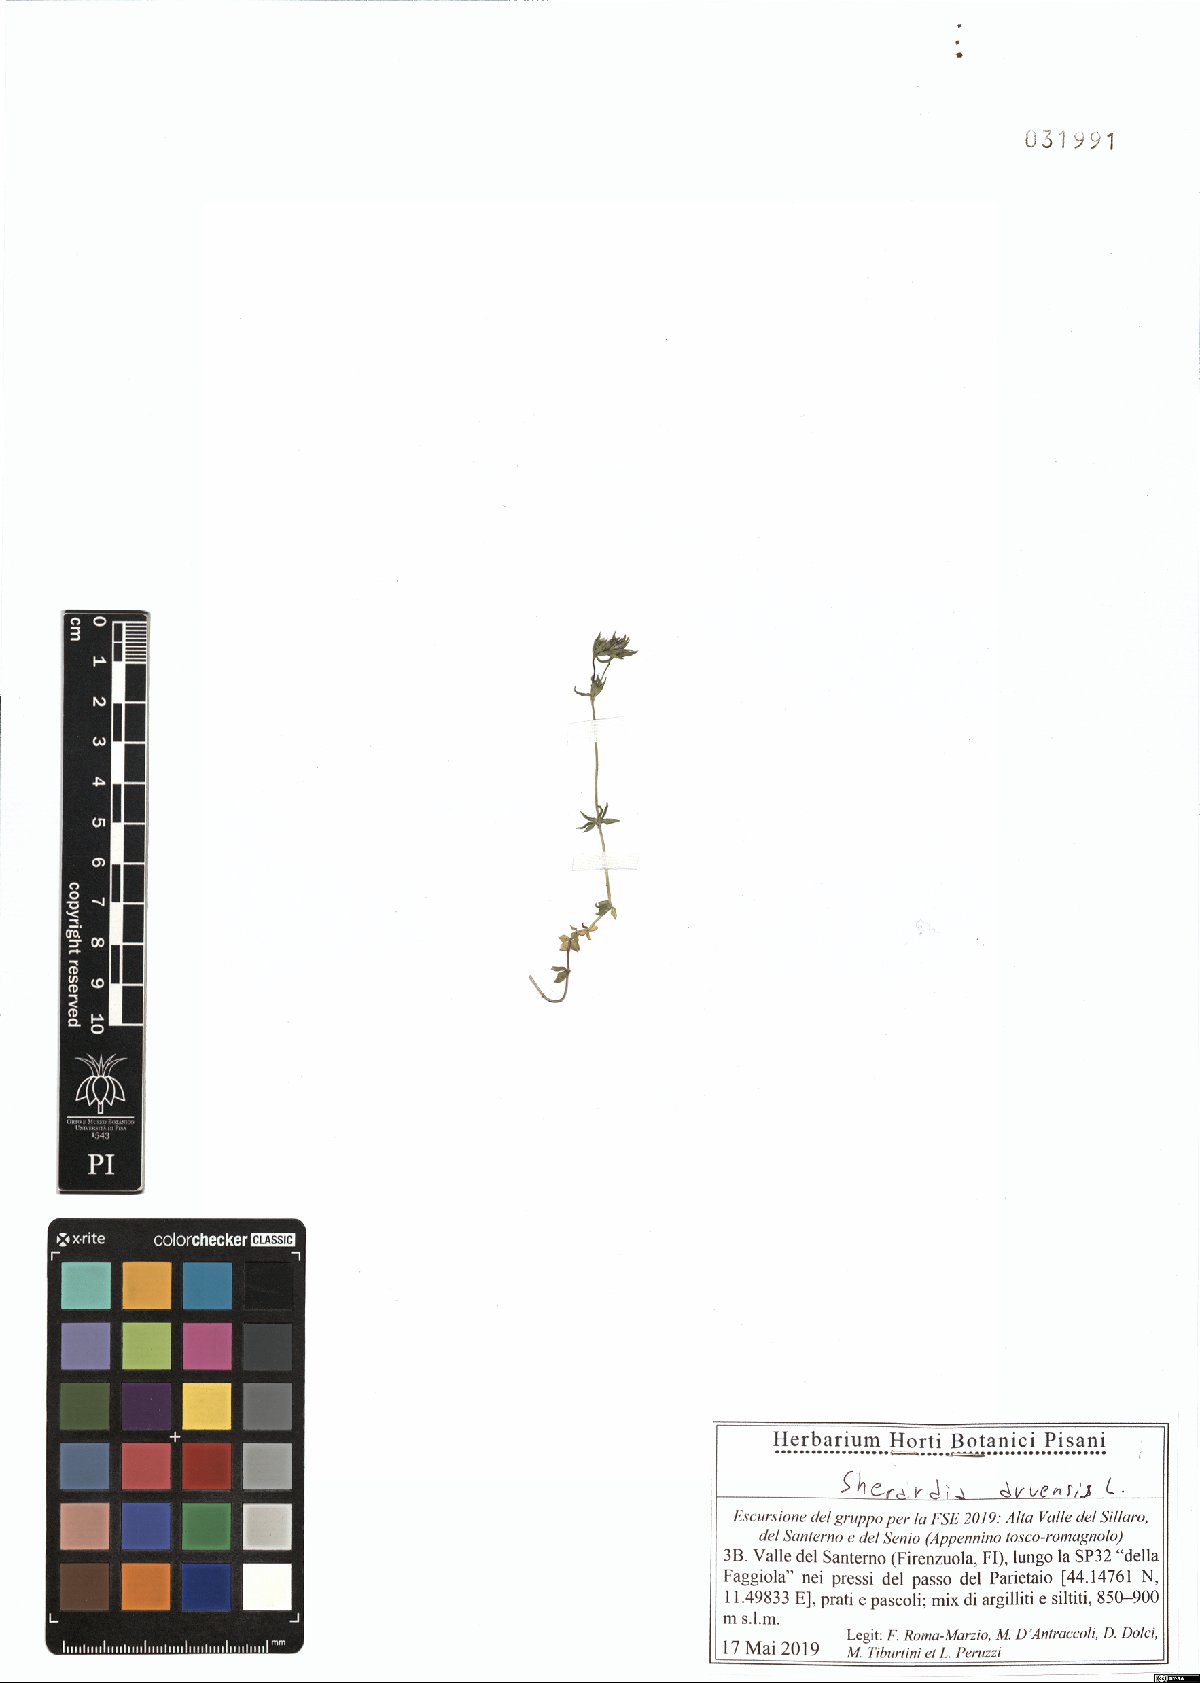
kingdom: Plantae
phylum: Tracheophyta
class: Magnoliopsida
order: Gentianales
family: Rubiaceae
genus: Sherardia
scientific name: Sherardia arvensis
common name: Field madder
